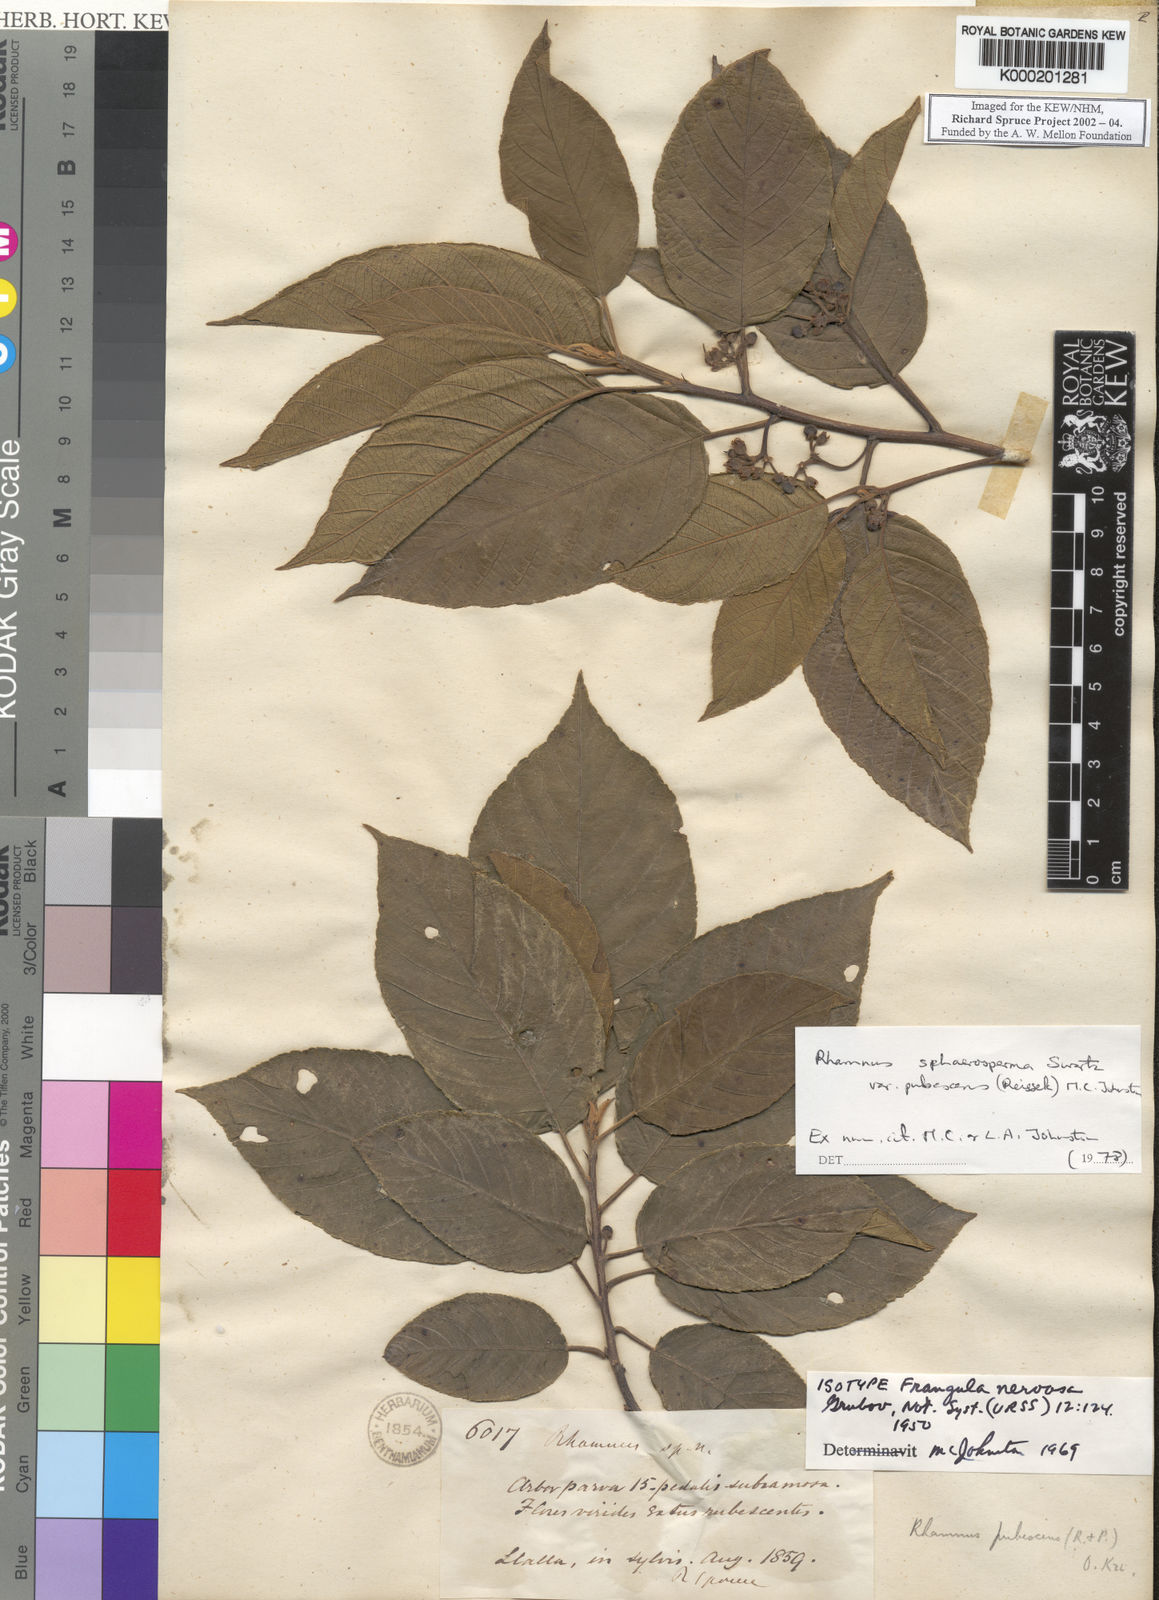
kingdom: Plantae
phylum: Tracheophyta
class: Magnoliopsida
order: Rosales
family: Rhamnaceae
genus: Frangula
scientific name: Frangula
